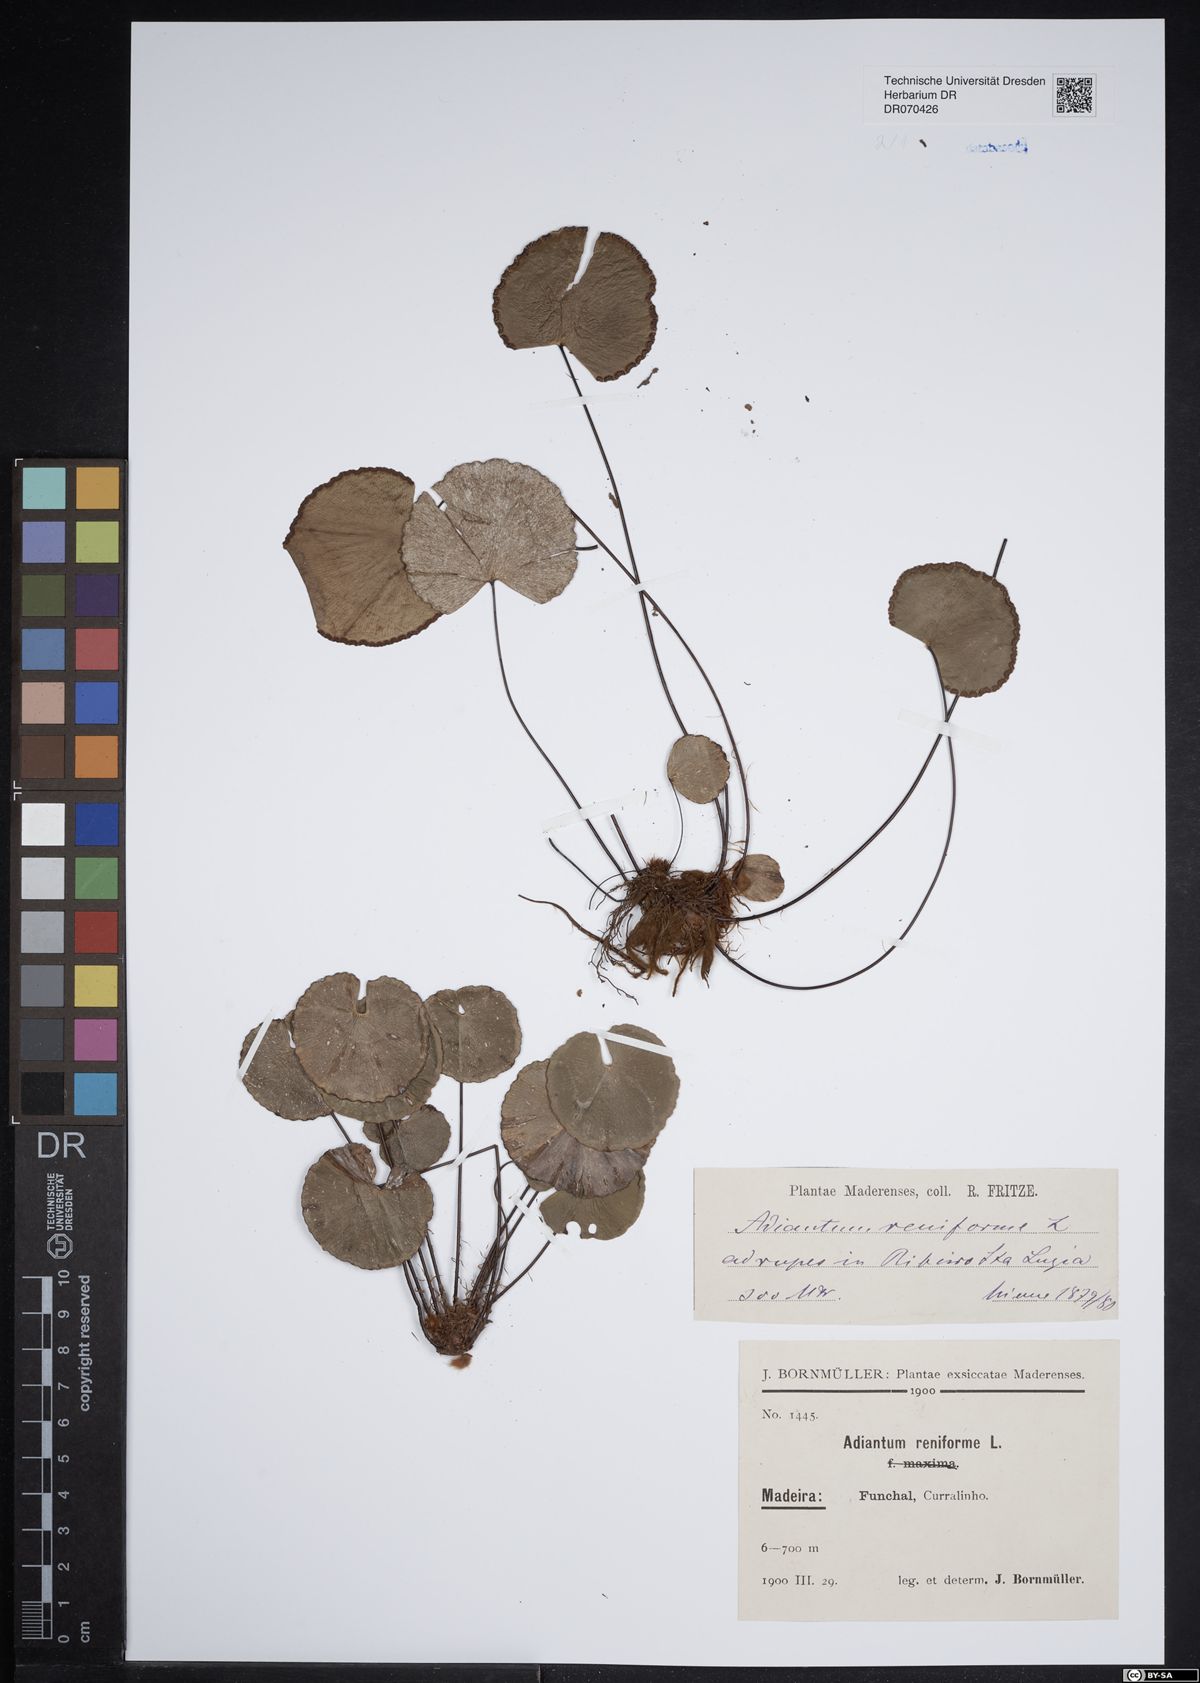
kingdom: Plantae
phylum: Tracheophyta
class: Polypodiopsida
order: Polypodiales
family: Pteridaceae
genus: Adiantum
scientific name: Adiantum reniforme
